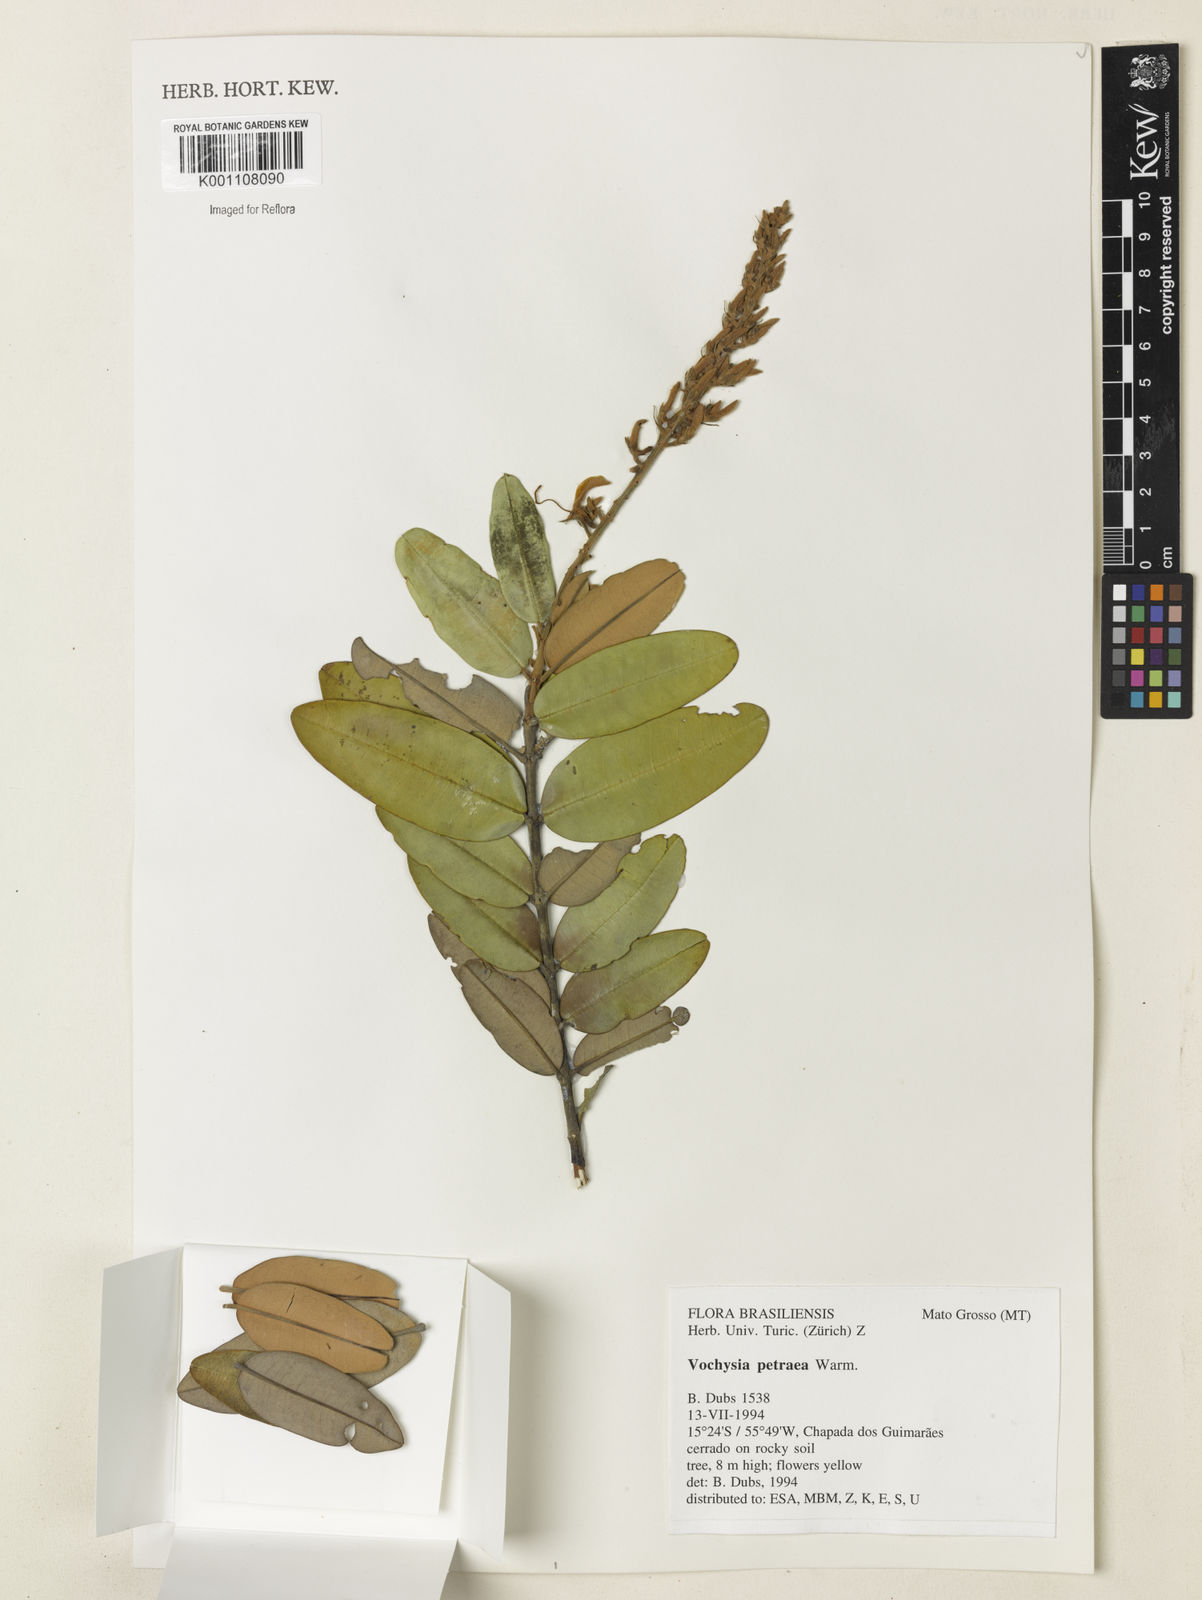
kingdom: Plantae
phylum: Tracheophyta
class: Magnoliopsida
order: Myrtales
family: Vochysiaceae
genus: Vochysia
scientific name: Vochysia petraea
